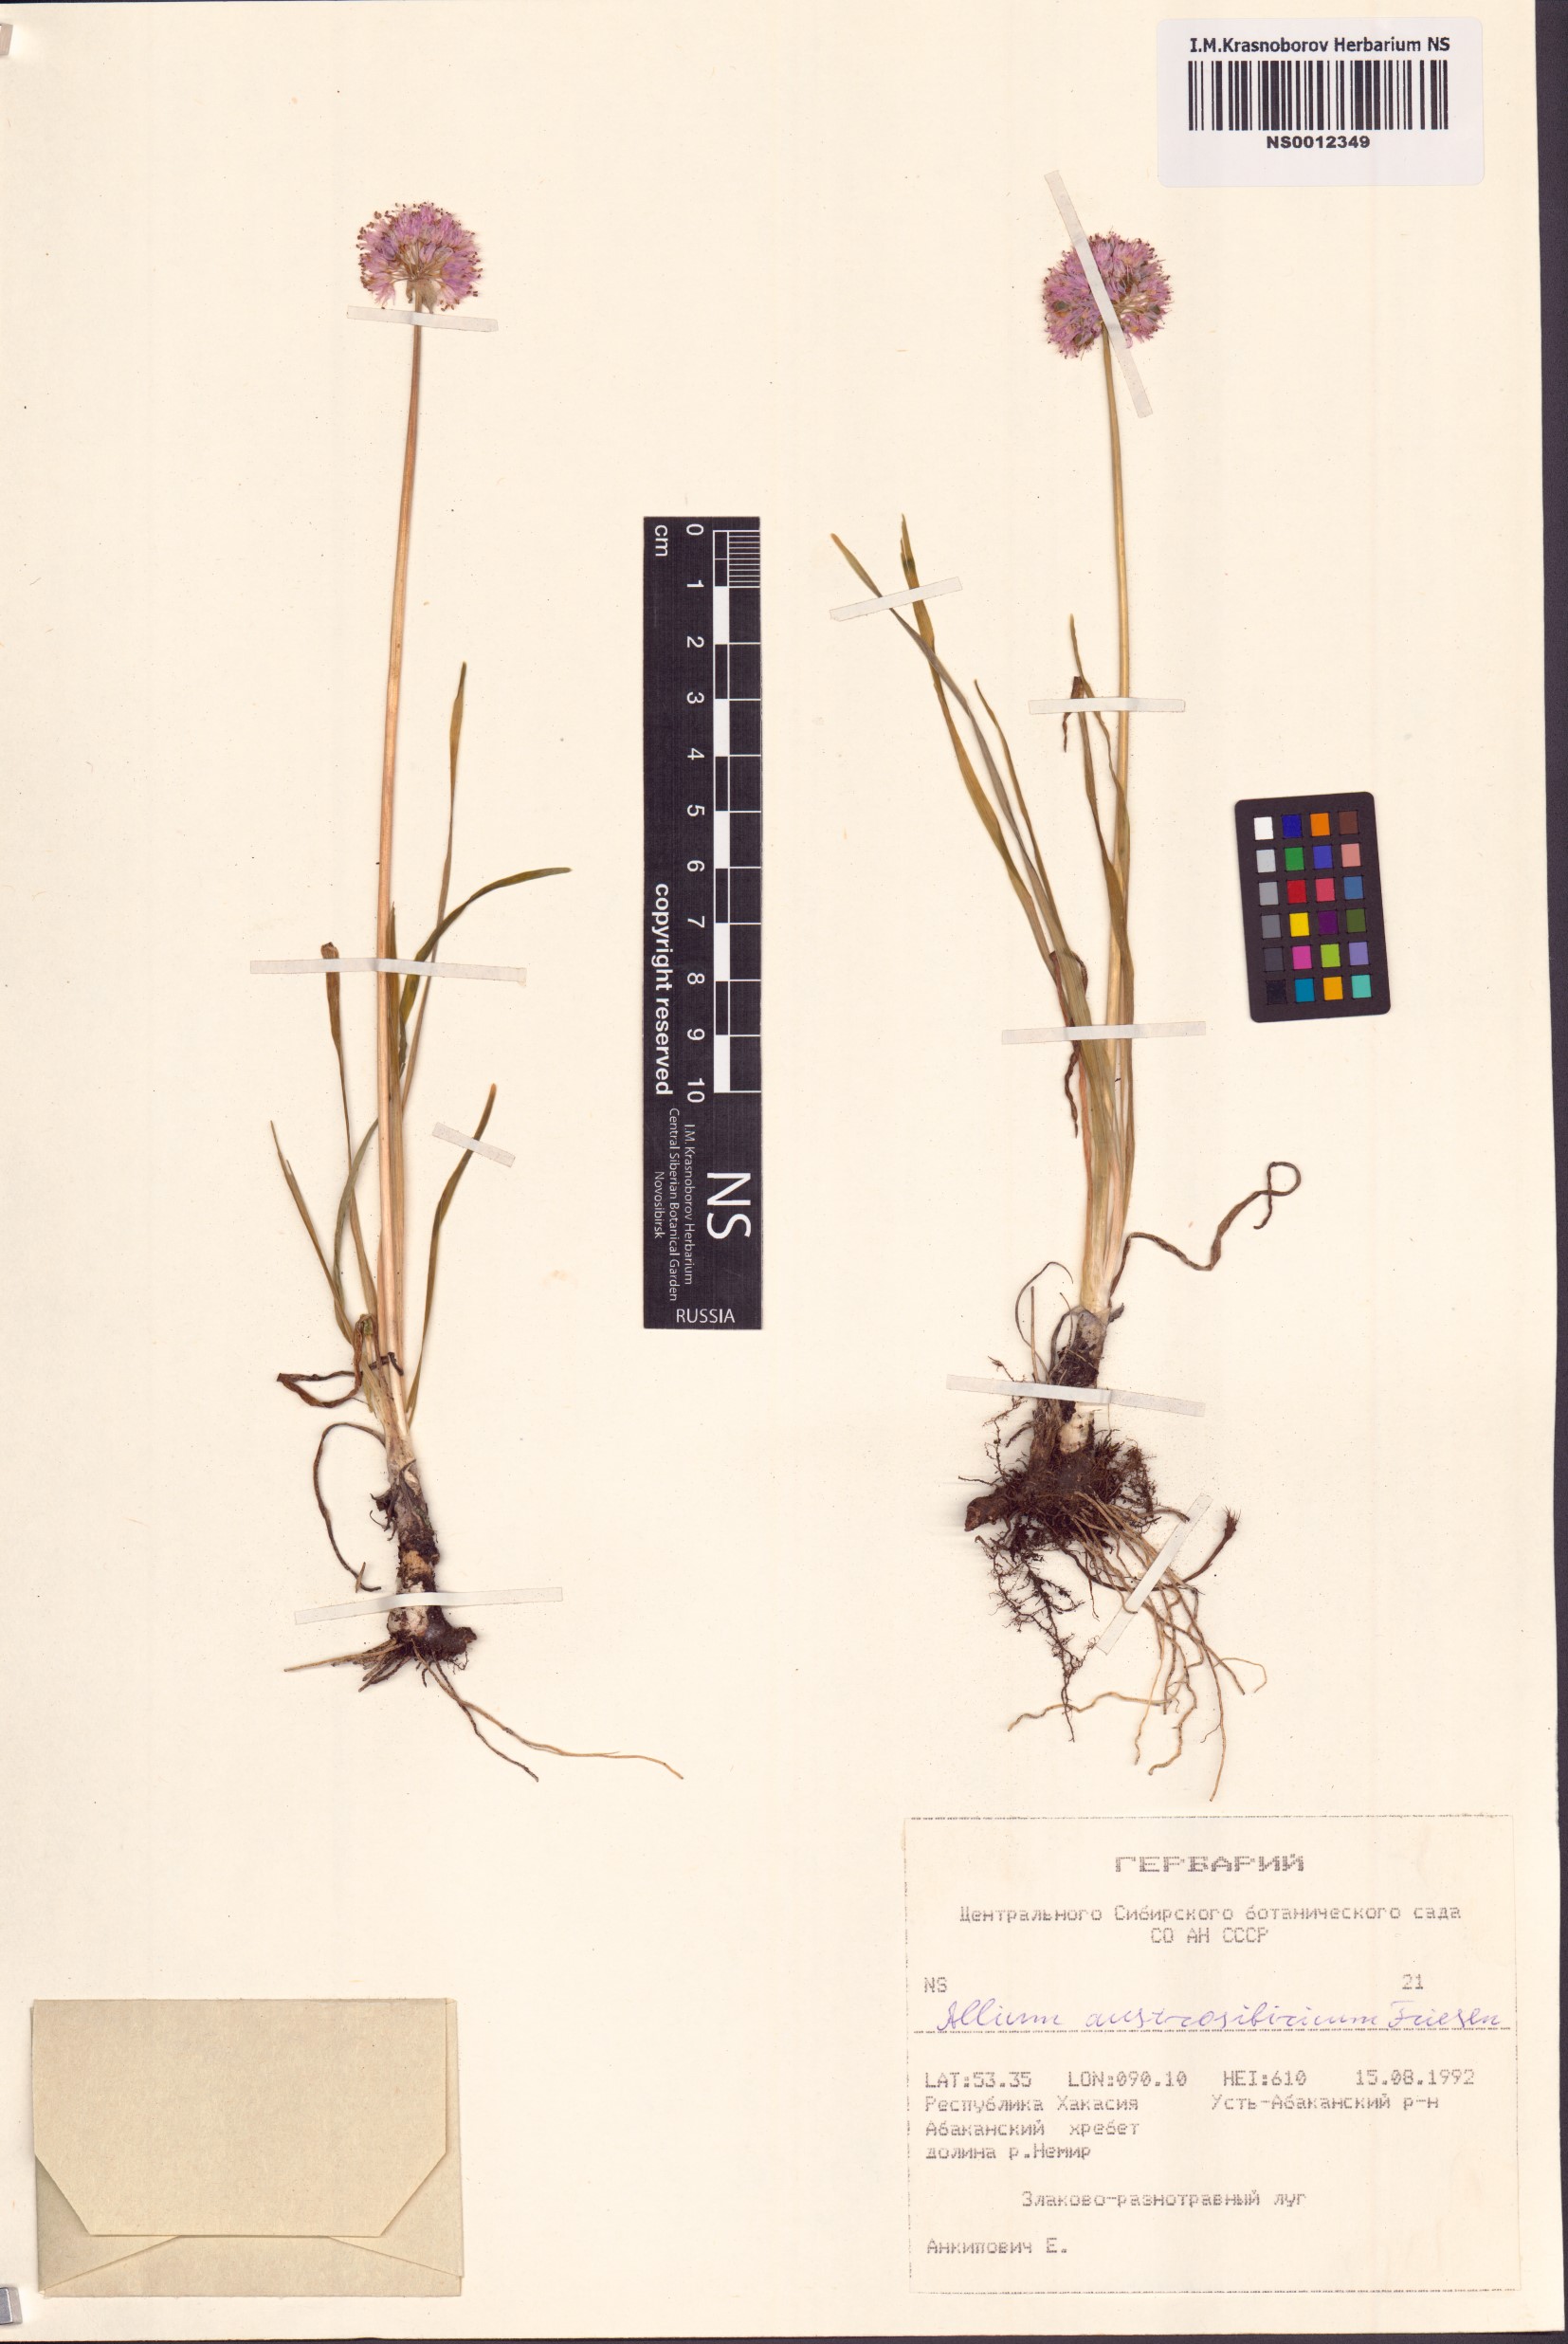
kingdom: Plantae
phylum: Tracheophyta
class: Liliopsida
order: Asparagales
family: Amaryllidaceae
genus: Allium
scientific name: Allium austrosibiricum
